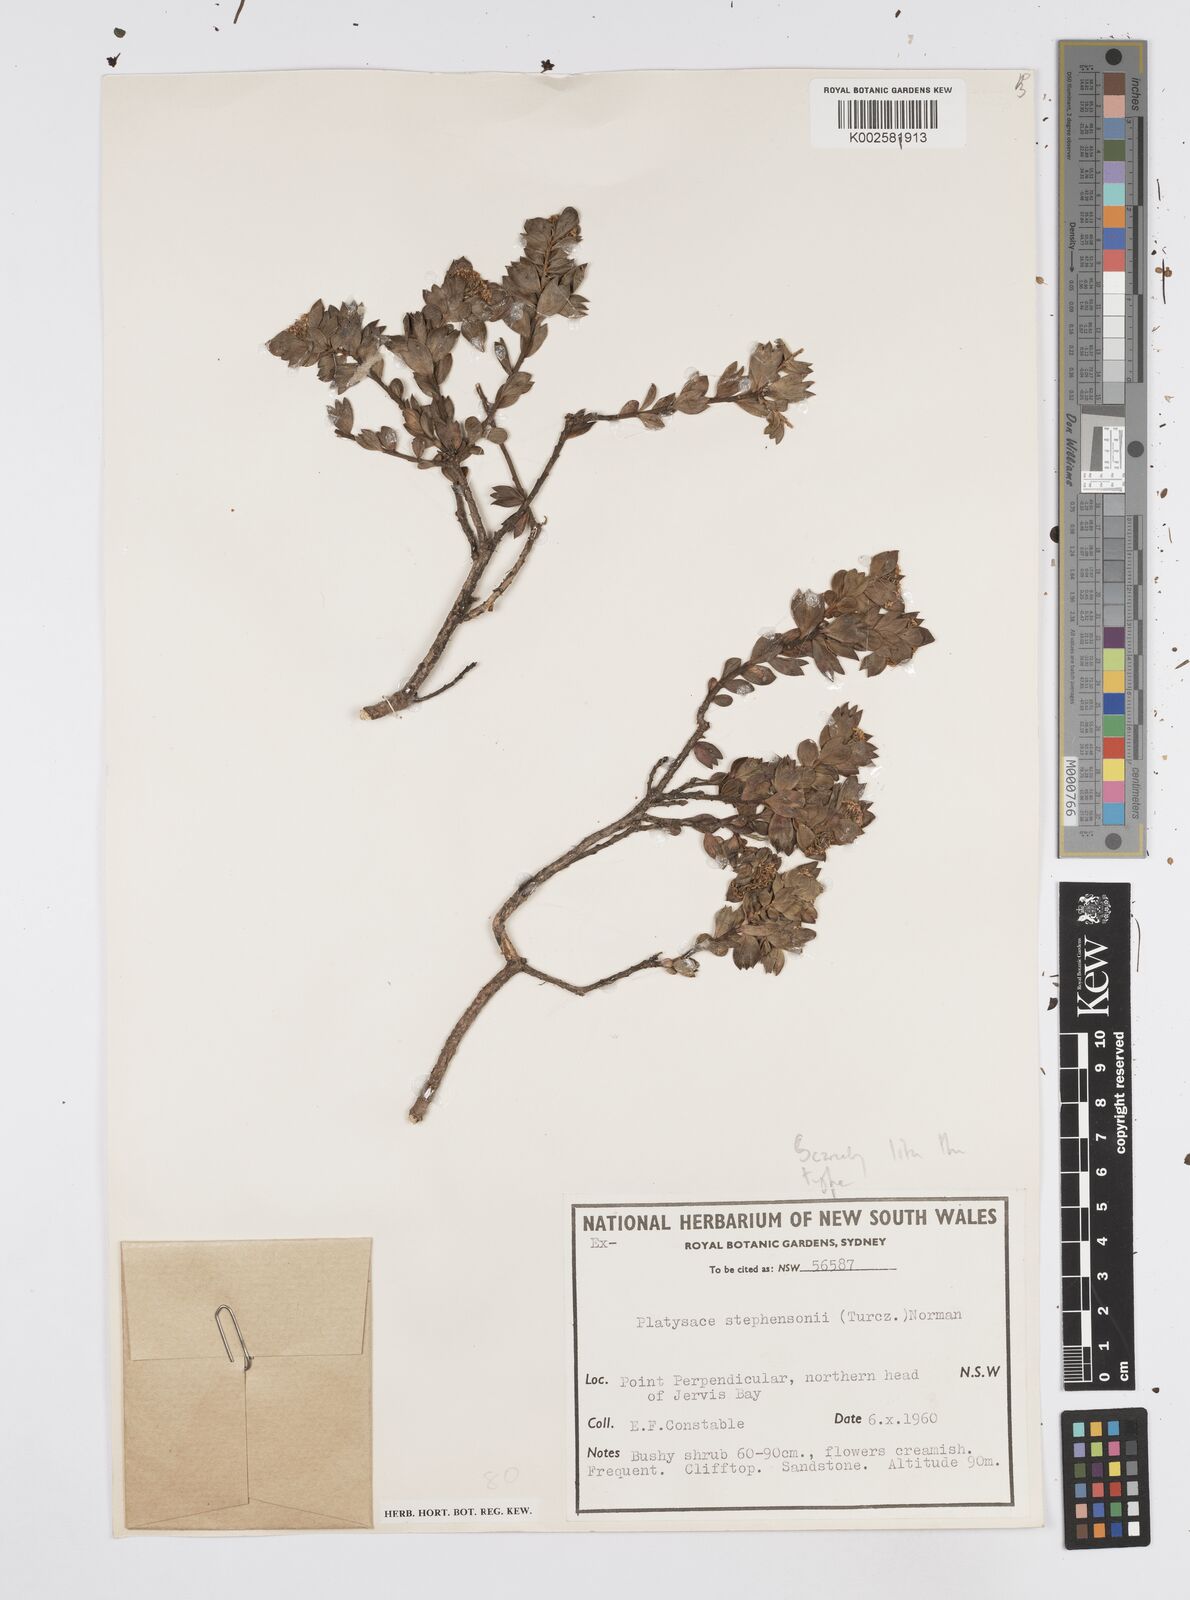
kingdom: Plantae
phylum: Tracheophyta
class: Magnoliopsida
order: Apiales
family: Apiaceae
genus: Platysace
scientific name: Platysace stephensonii
